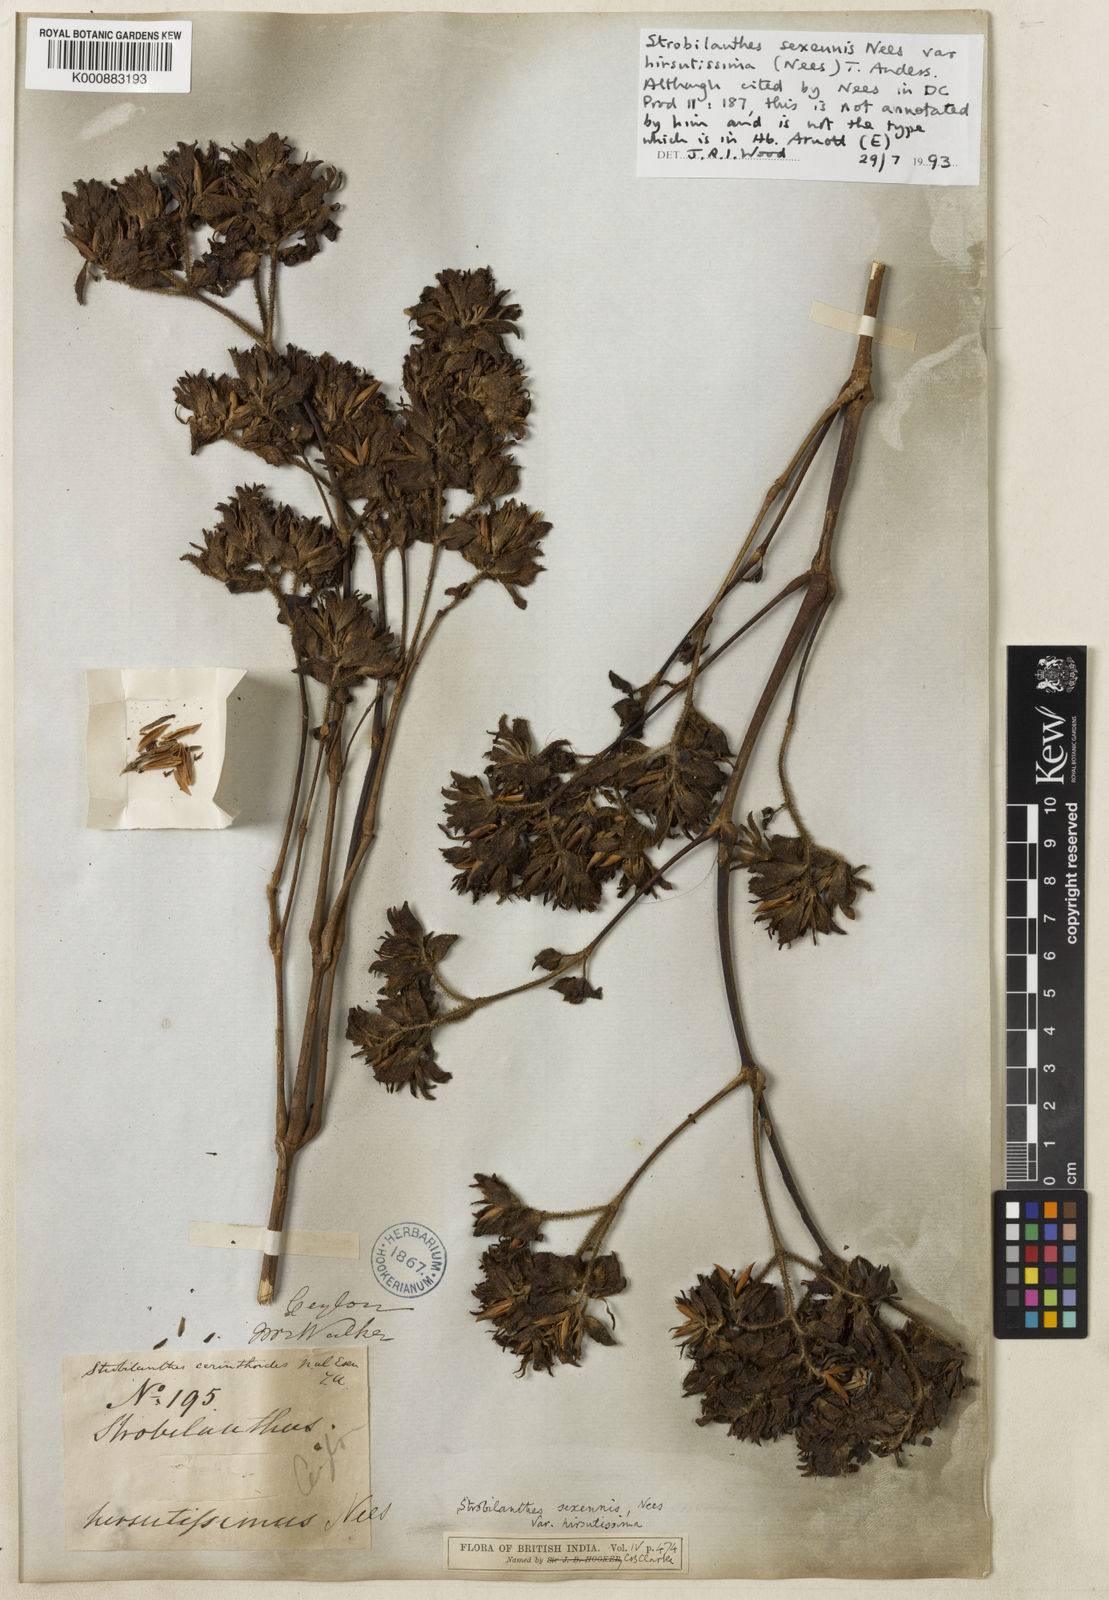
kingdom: Plantae
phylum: Tracheophyta
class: Magnoliopsida
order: Lamiales
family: Acanthaceae
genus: Strobilanthes
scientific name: Strobilanthes sexennis
